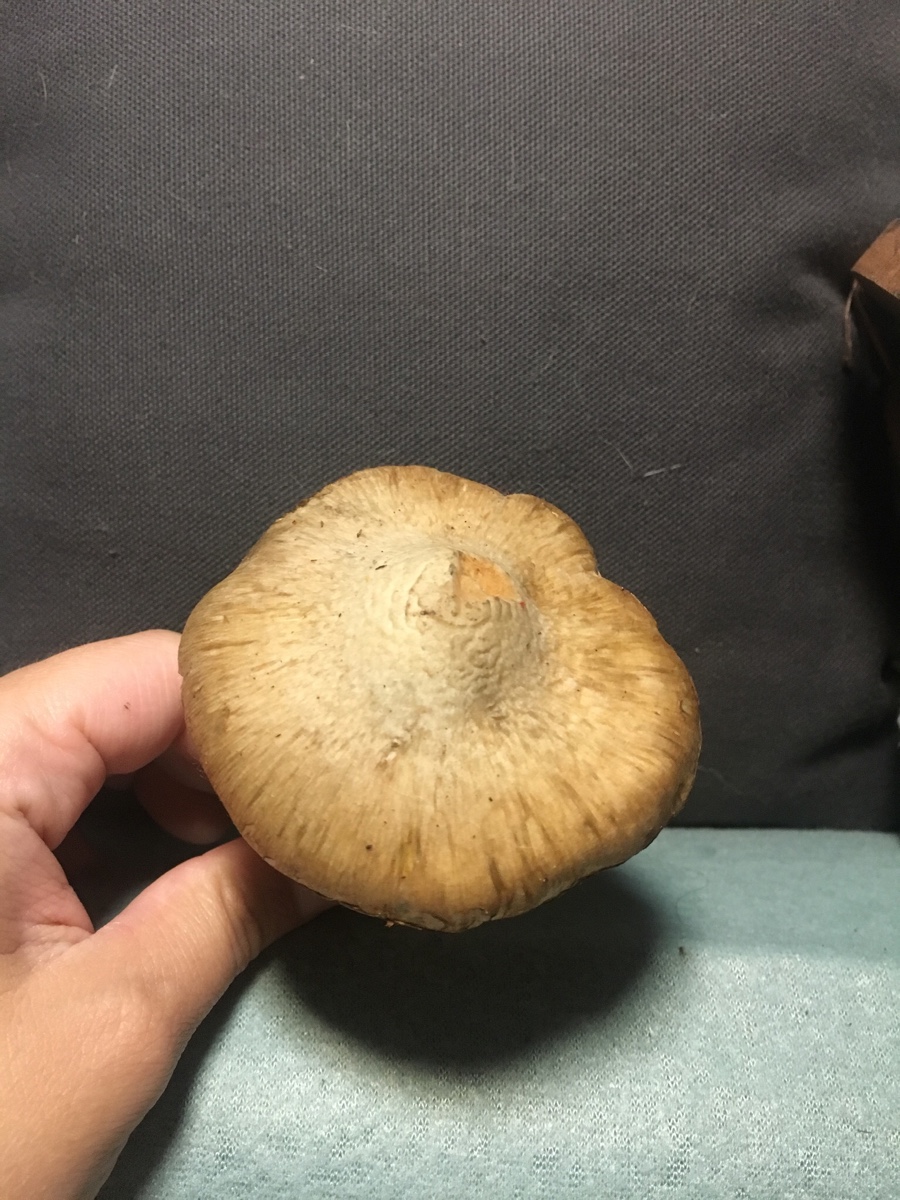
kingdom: Fungi
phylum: Basidiomycota
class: Agaricomycetes
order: Agaricales
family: Inocybaceae
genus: Inocybe
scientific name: Inocybe corydalina
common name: grønpuklet trævlhat
